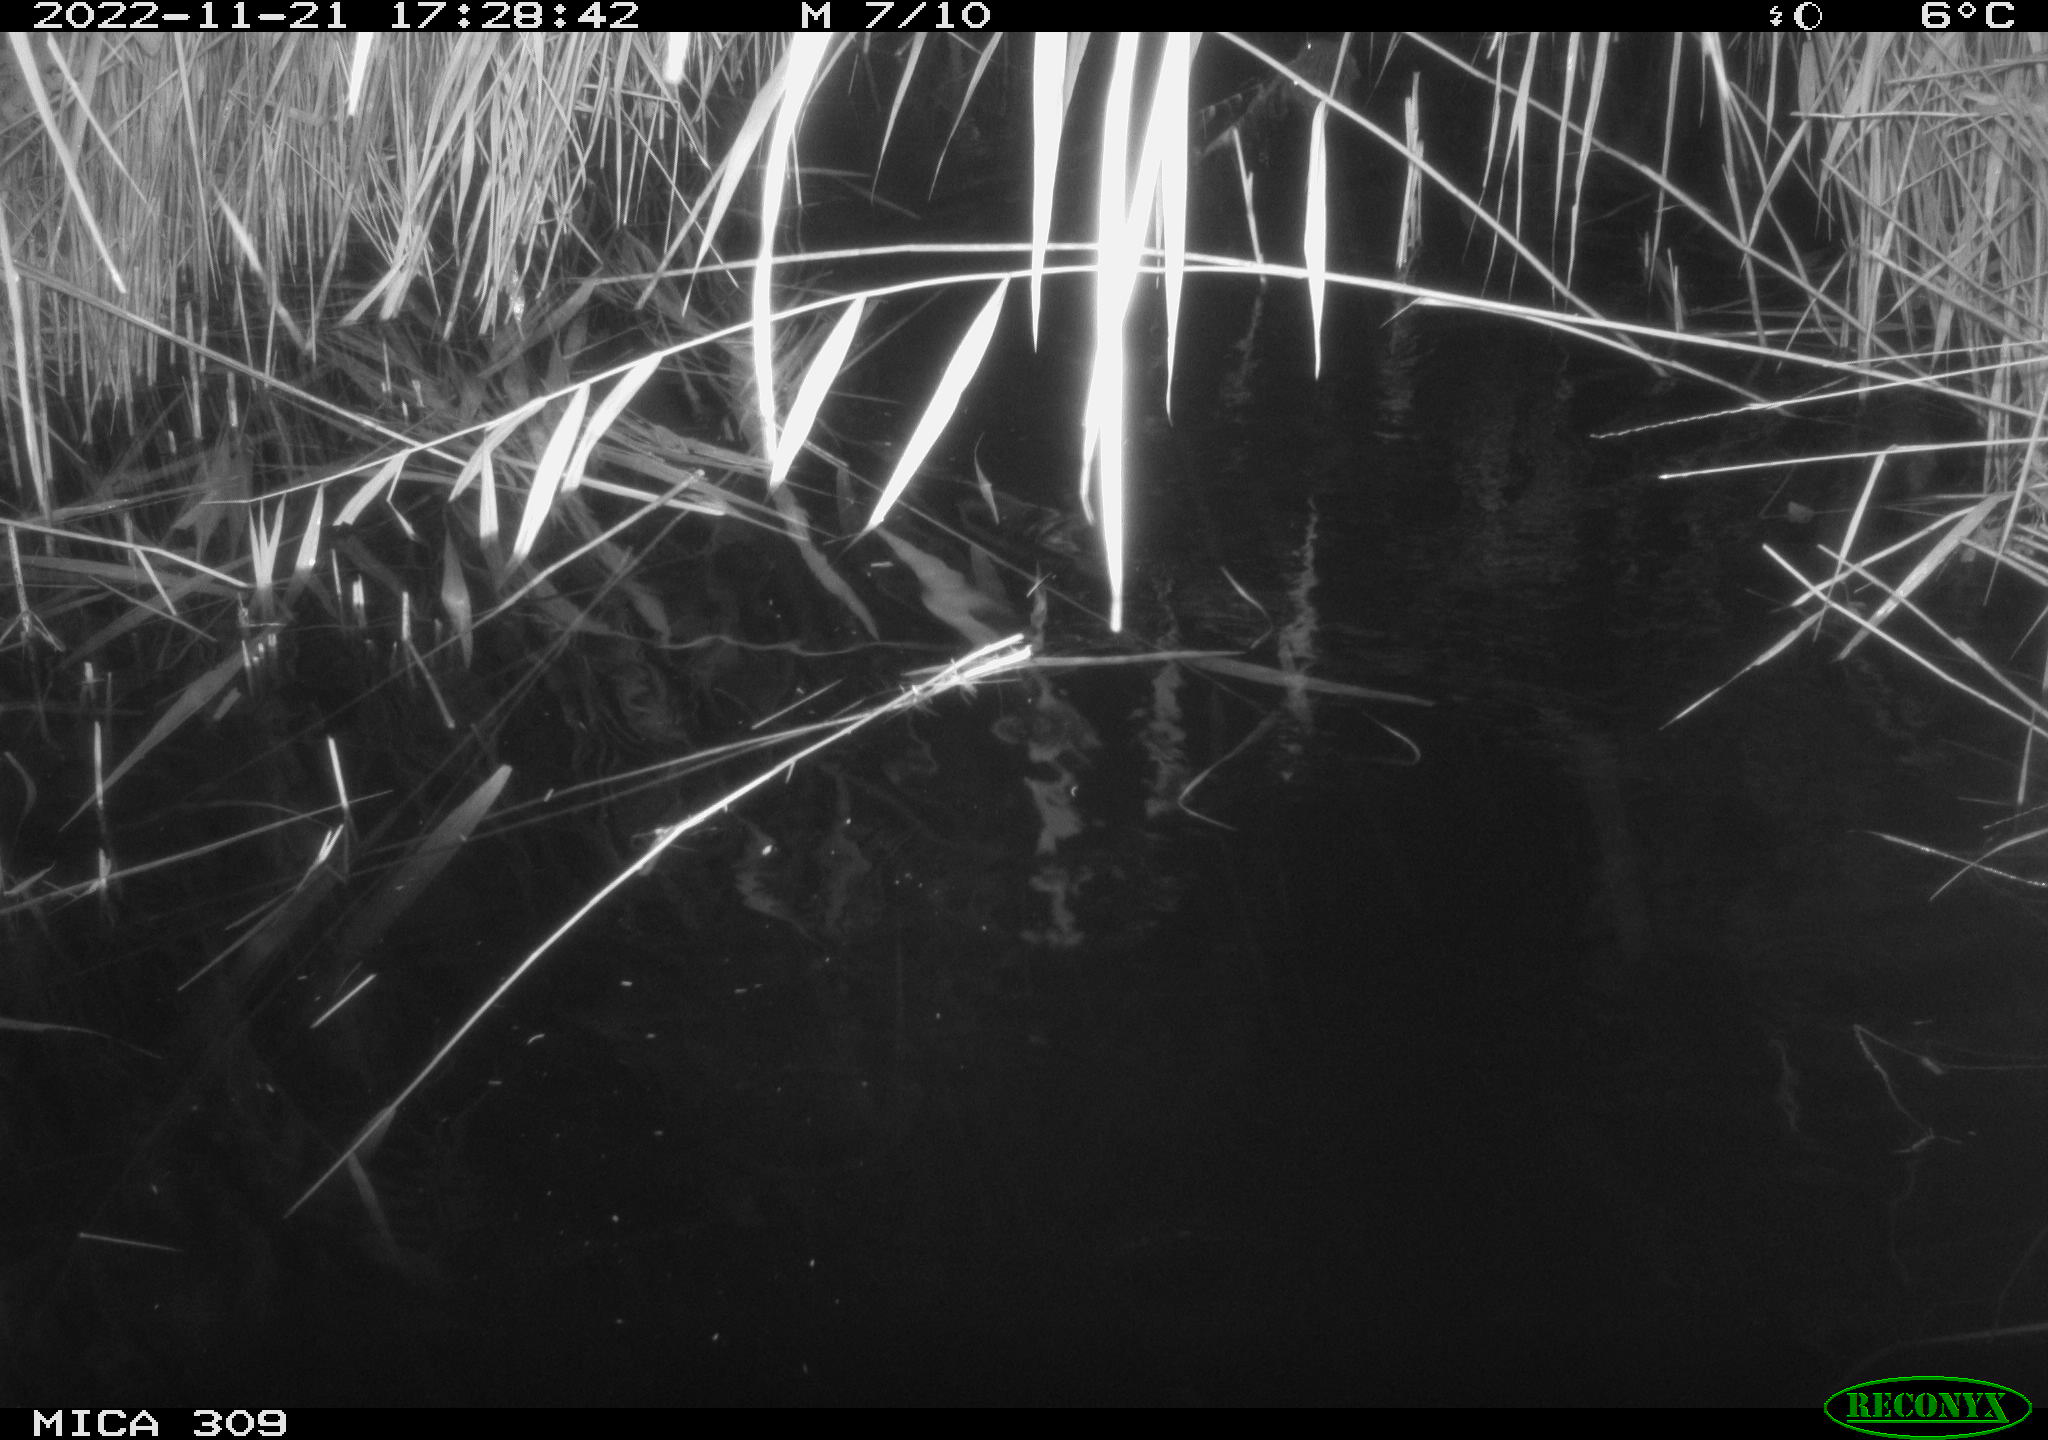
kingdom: Animalia
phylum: Chordata
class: Mammalia
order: Rodentia
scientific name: Rodentia
